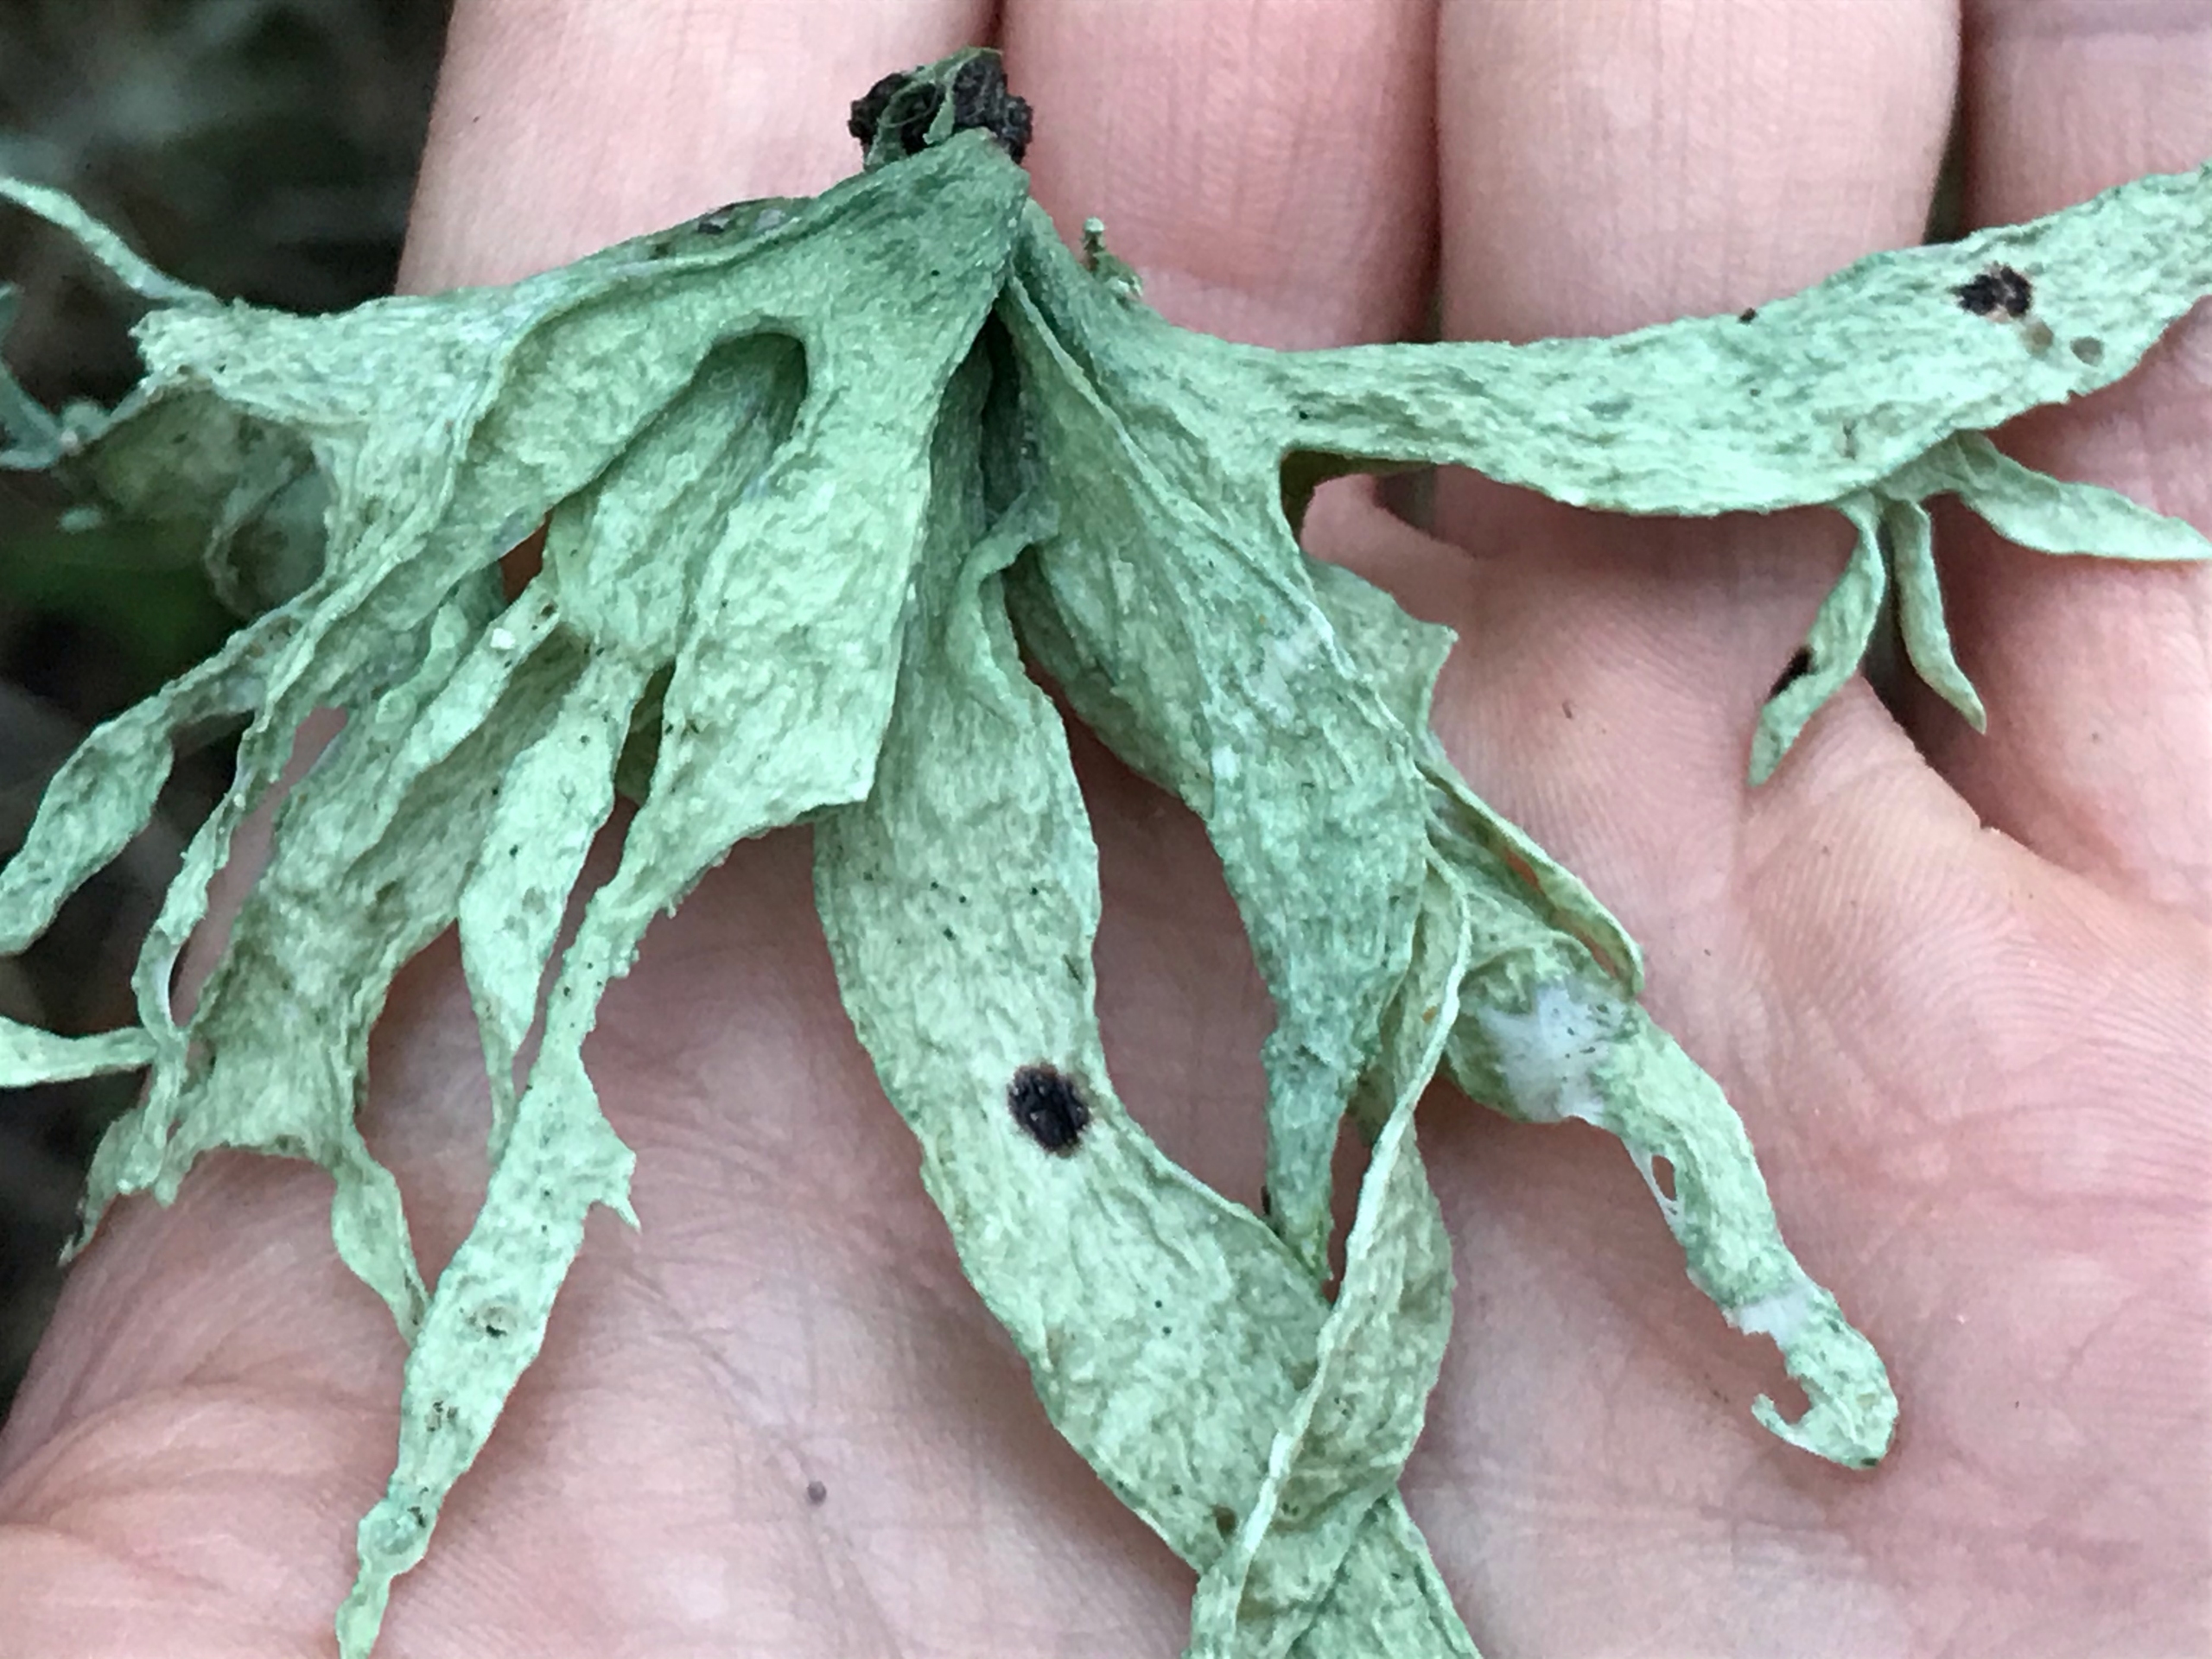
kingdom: Fungi
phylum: Ascomycota
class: Lecanoromycetes
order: Lecanorales
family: Ramalinaceae
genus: Ramalina
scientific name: Ramalina fraxinea
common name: Stor grenlav
